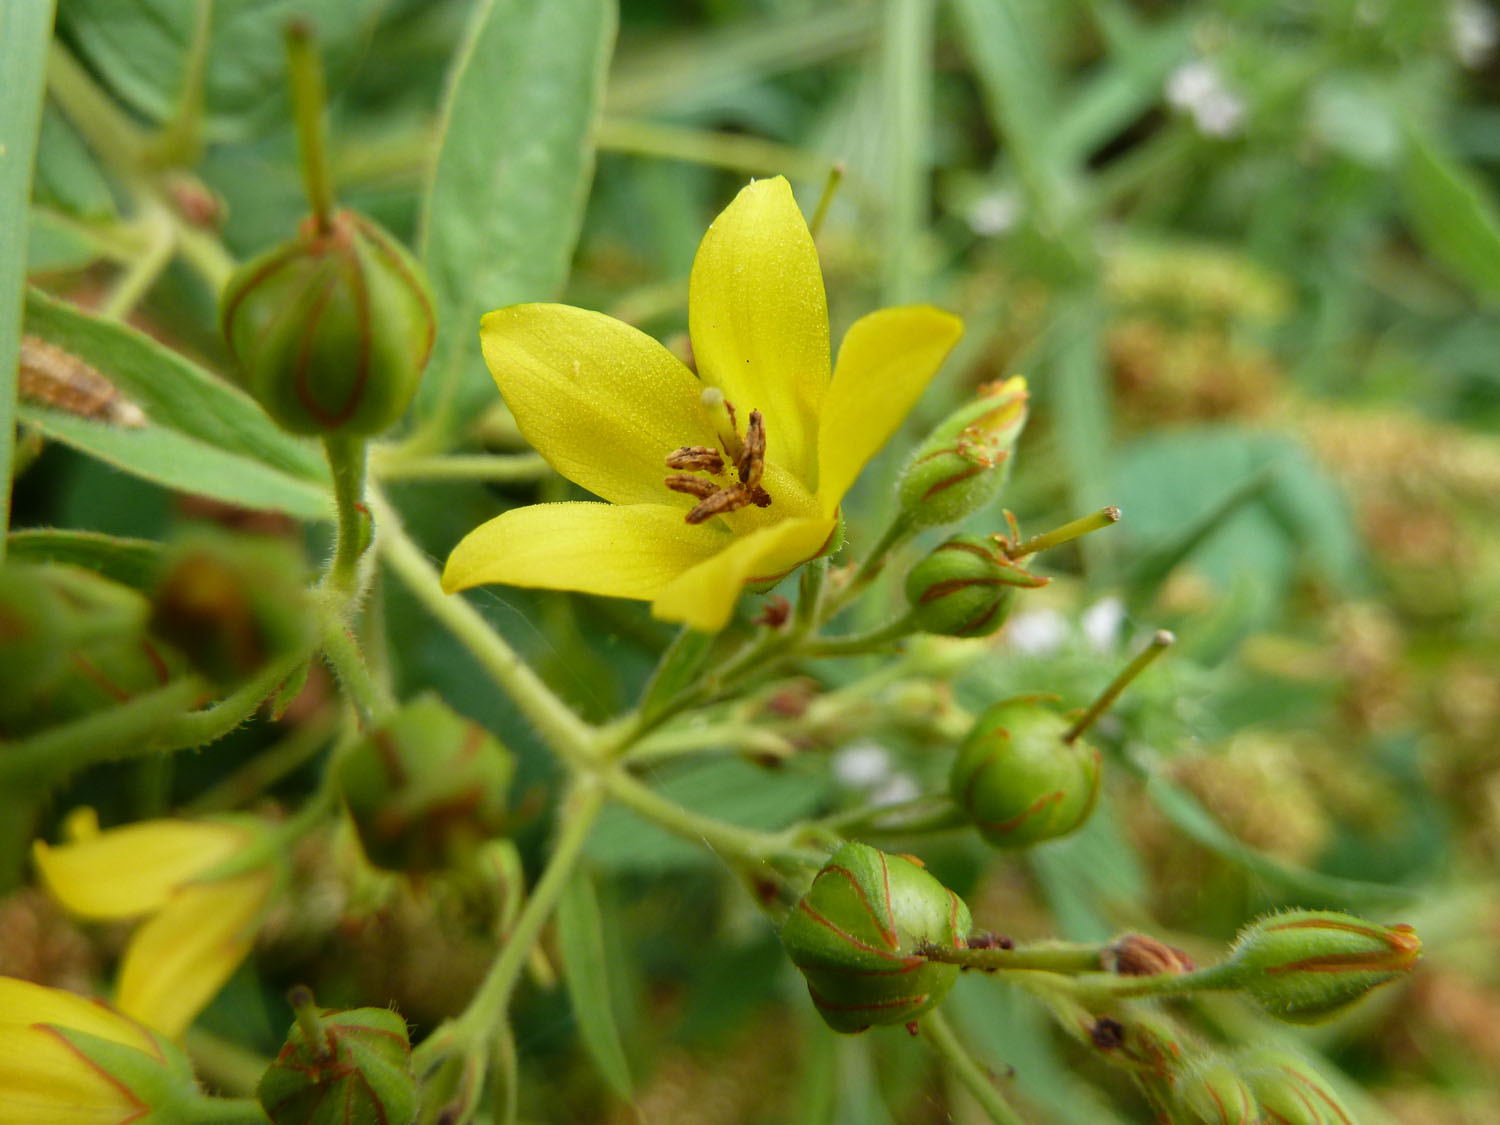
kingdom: Plantae
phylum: Tracheophyta
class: Magnoliopsida
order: Ericales
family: Primulaceae
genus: Lysimachia
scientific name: Lysimachia vulgaris
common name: Yellow loosestrife
